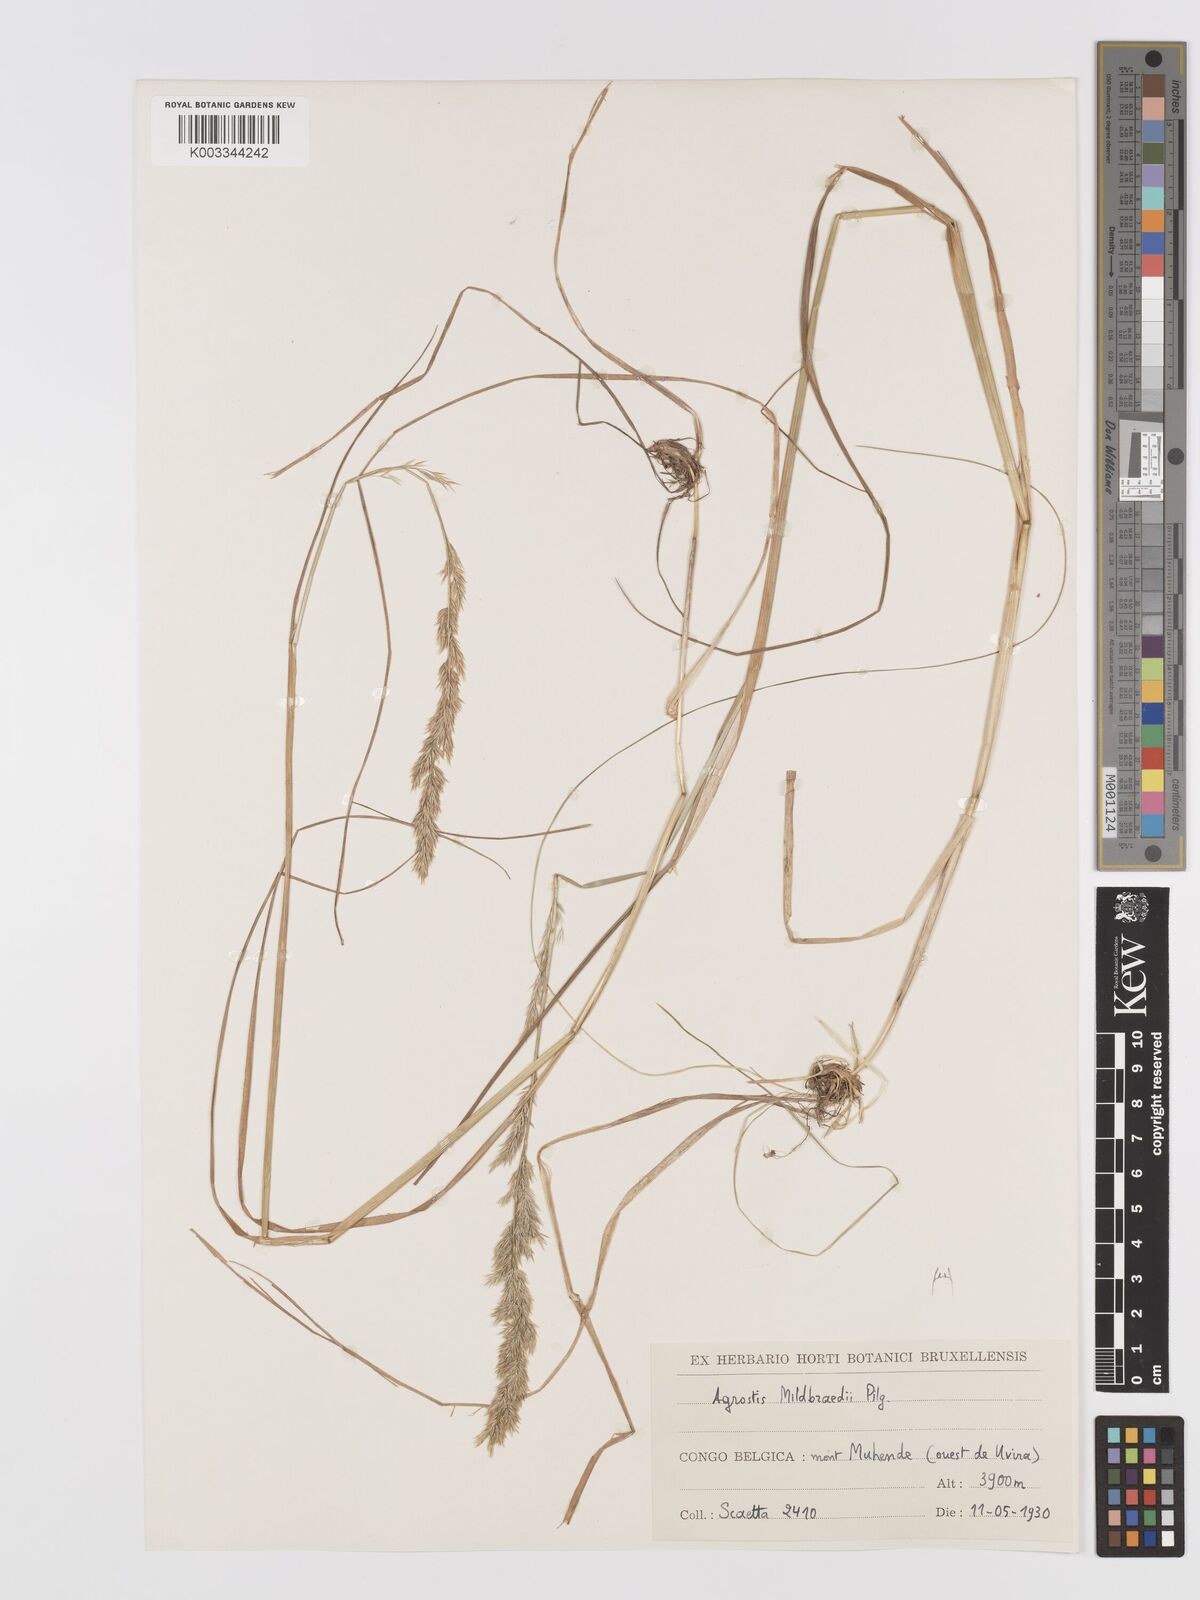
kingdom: Plantae
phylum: Tracheophyta
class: Liliopsida
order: Poales
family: Poaceae
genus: Agrostis
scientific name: Agrostis quinqueseta
